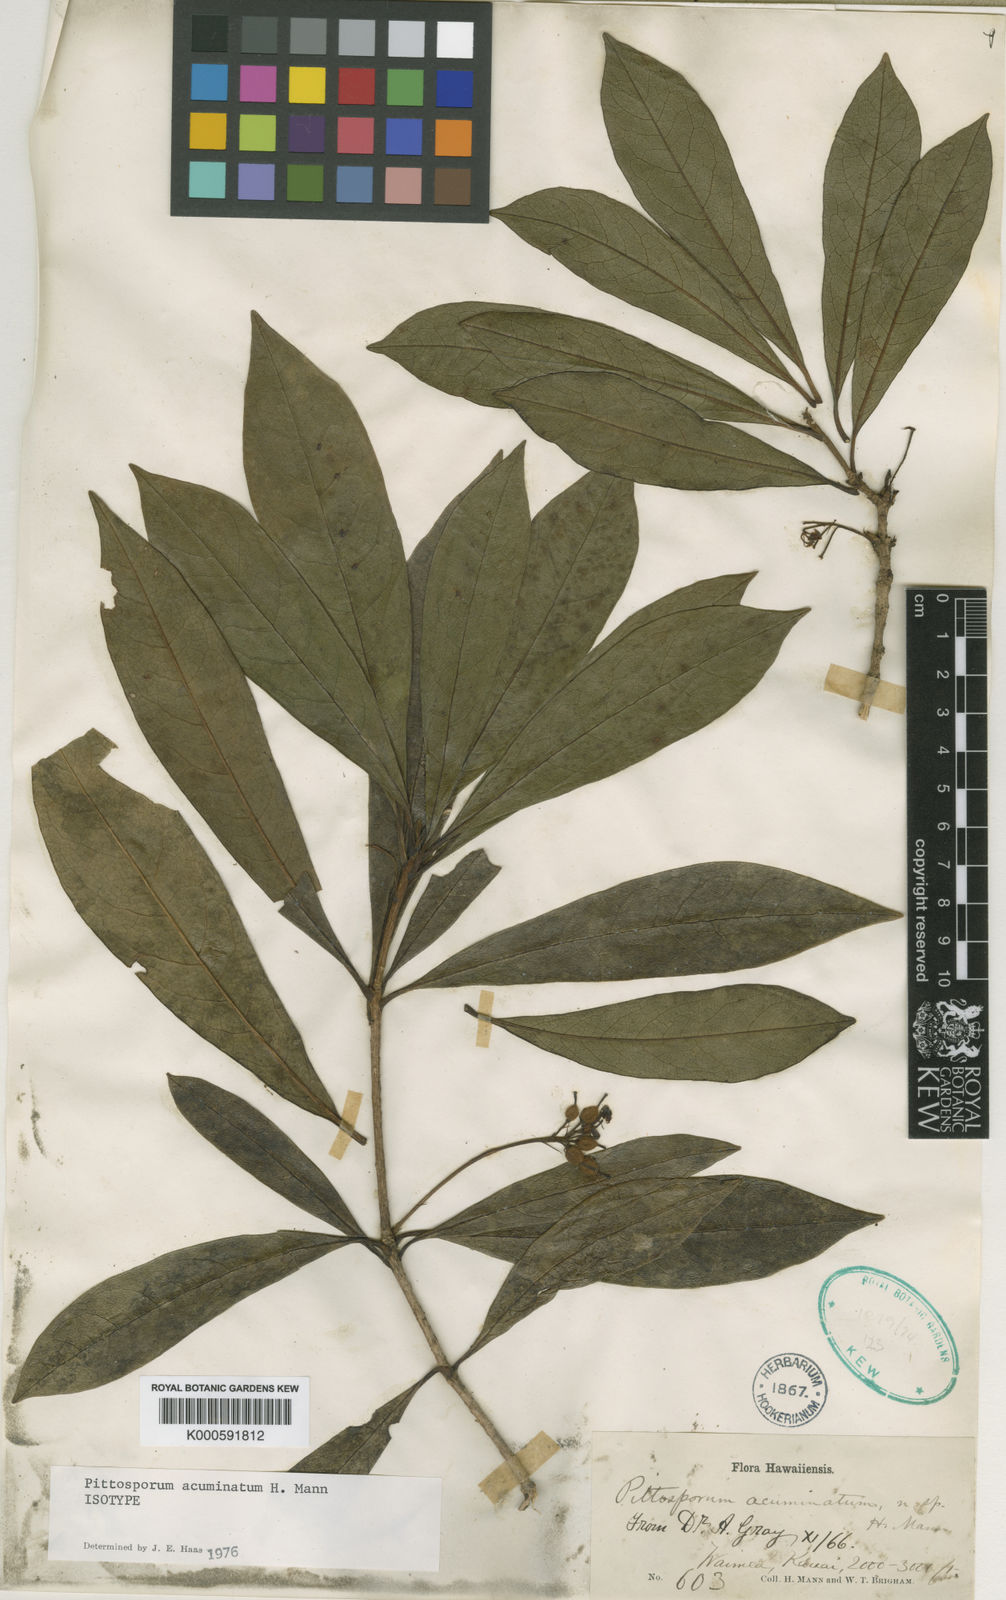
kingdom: Plantae
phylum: Tracheophyta
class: Magnoliopsida
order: Apiales
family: Pittosporaceae
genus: Pittosporum
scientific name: Pittosporum glabrum
